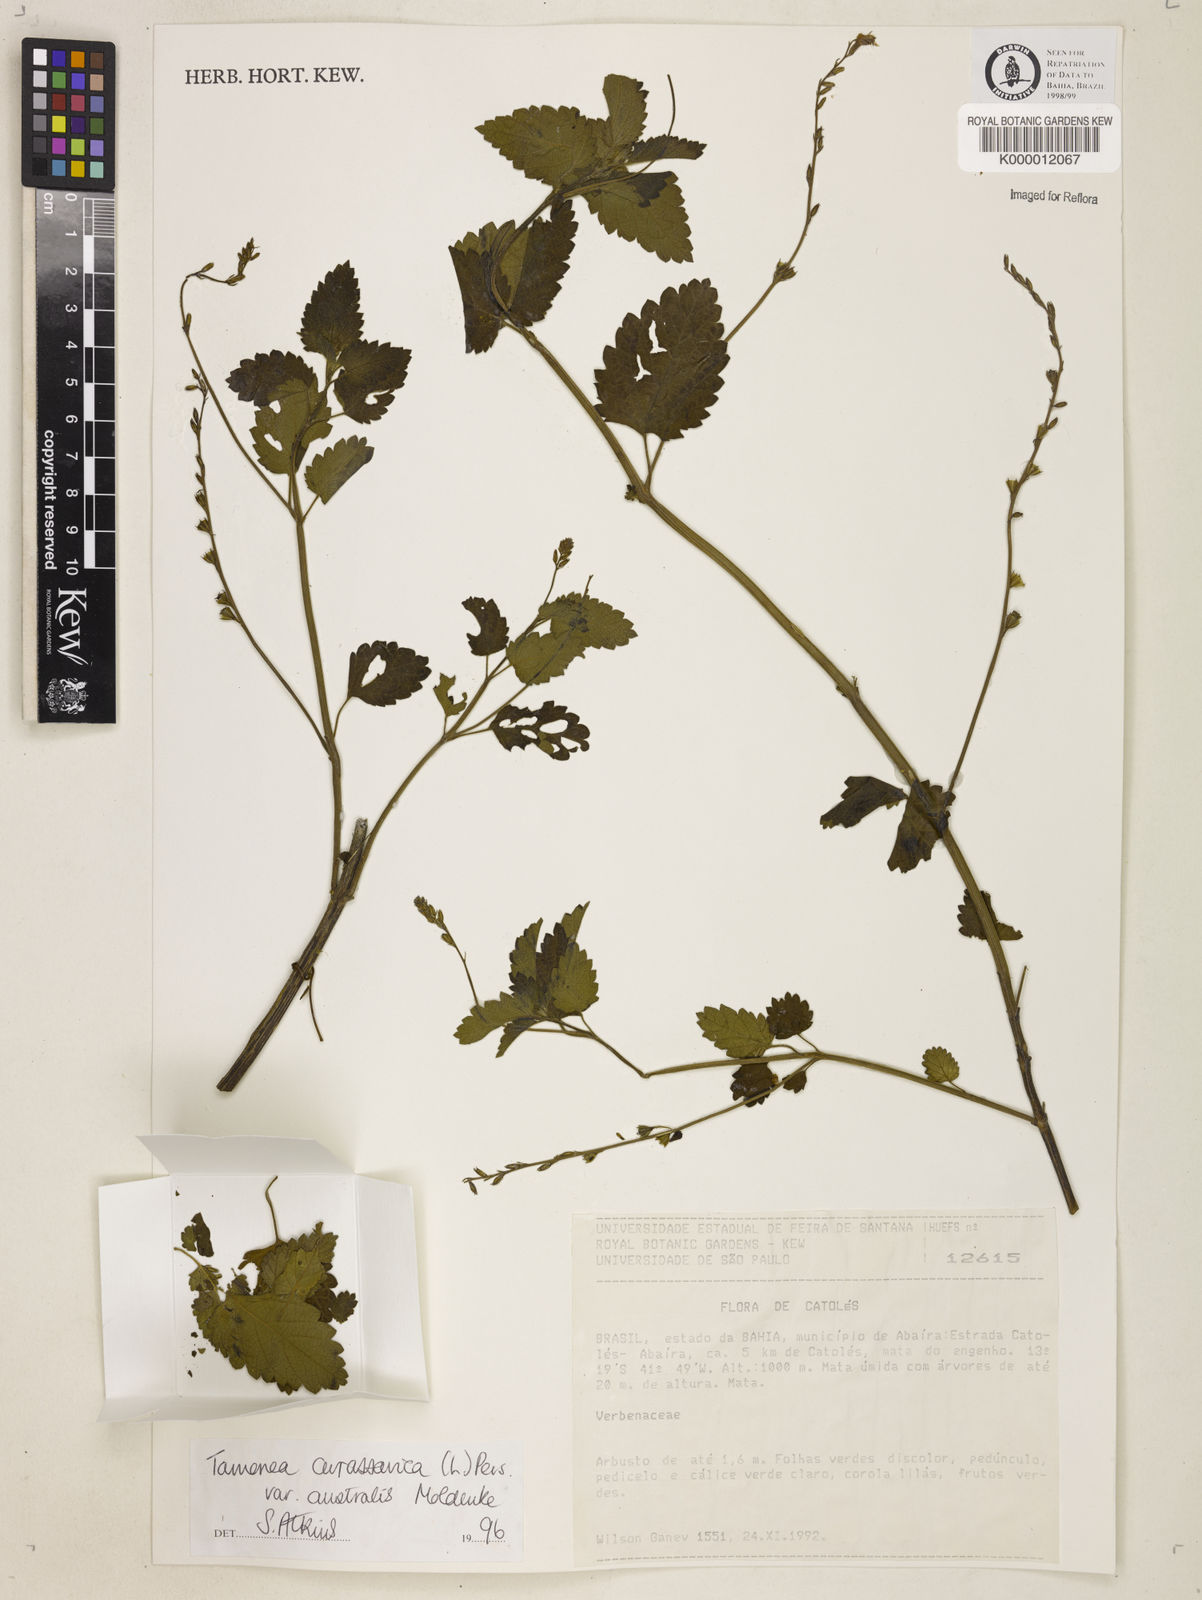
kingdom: Plantae
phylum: Tracheophyta
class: Magnoliopsida
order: Lamiales
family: Verbenaceae
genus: Tamonea
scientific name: Tamonea
